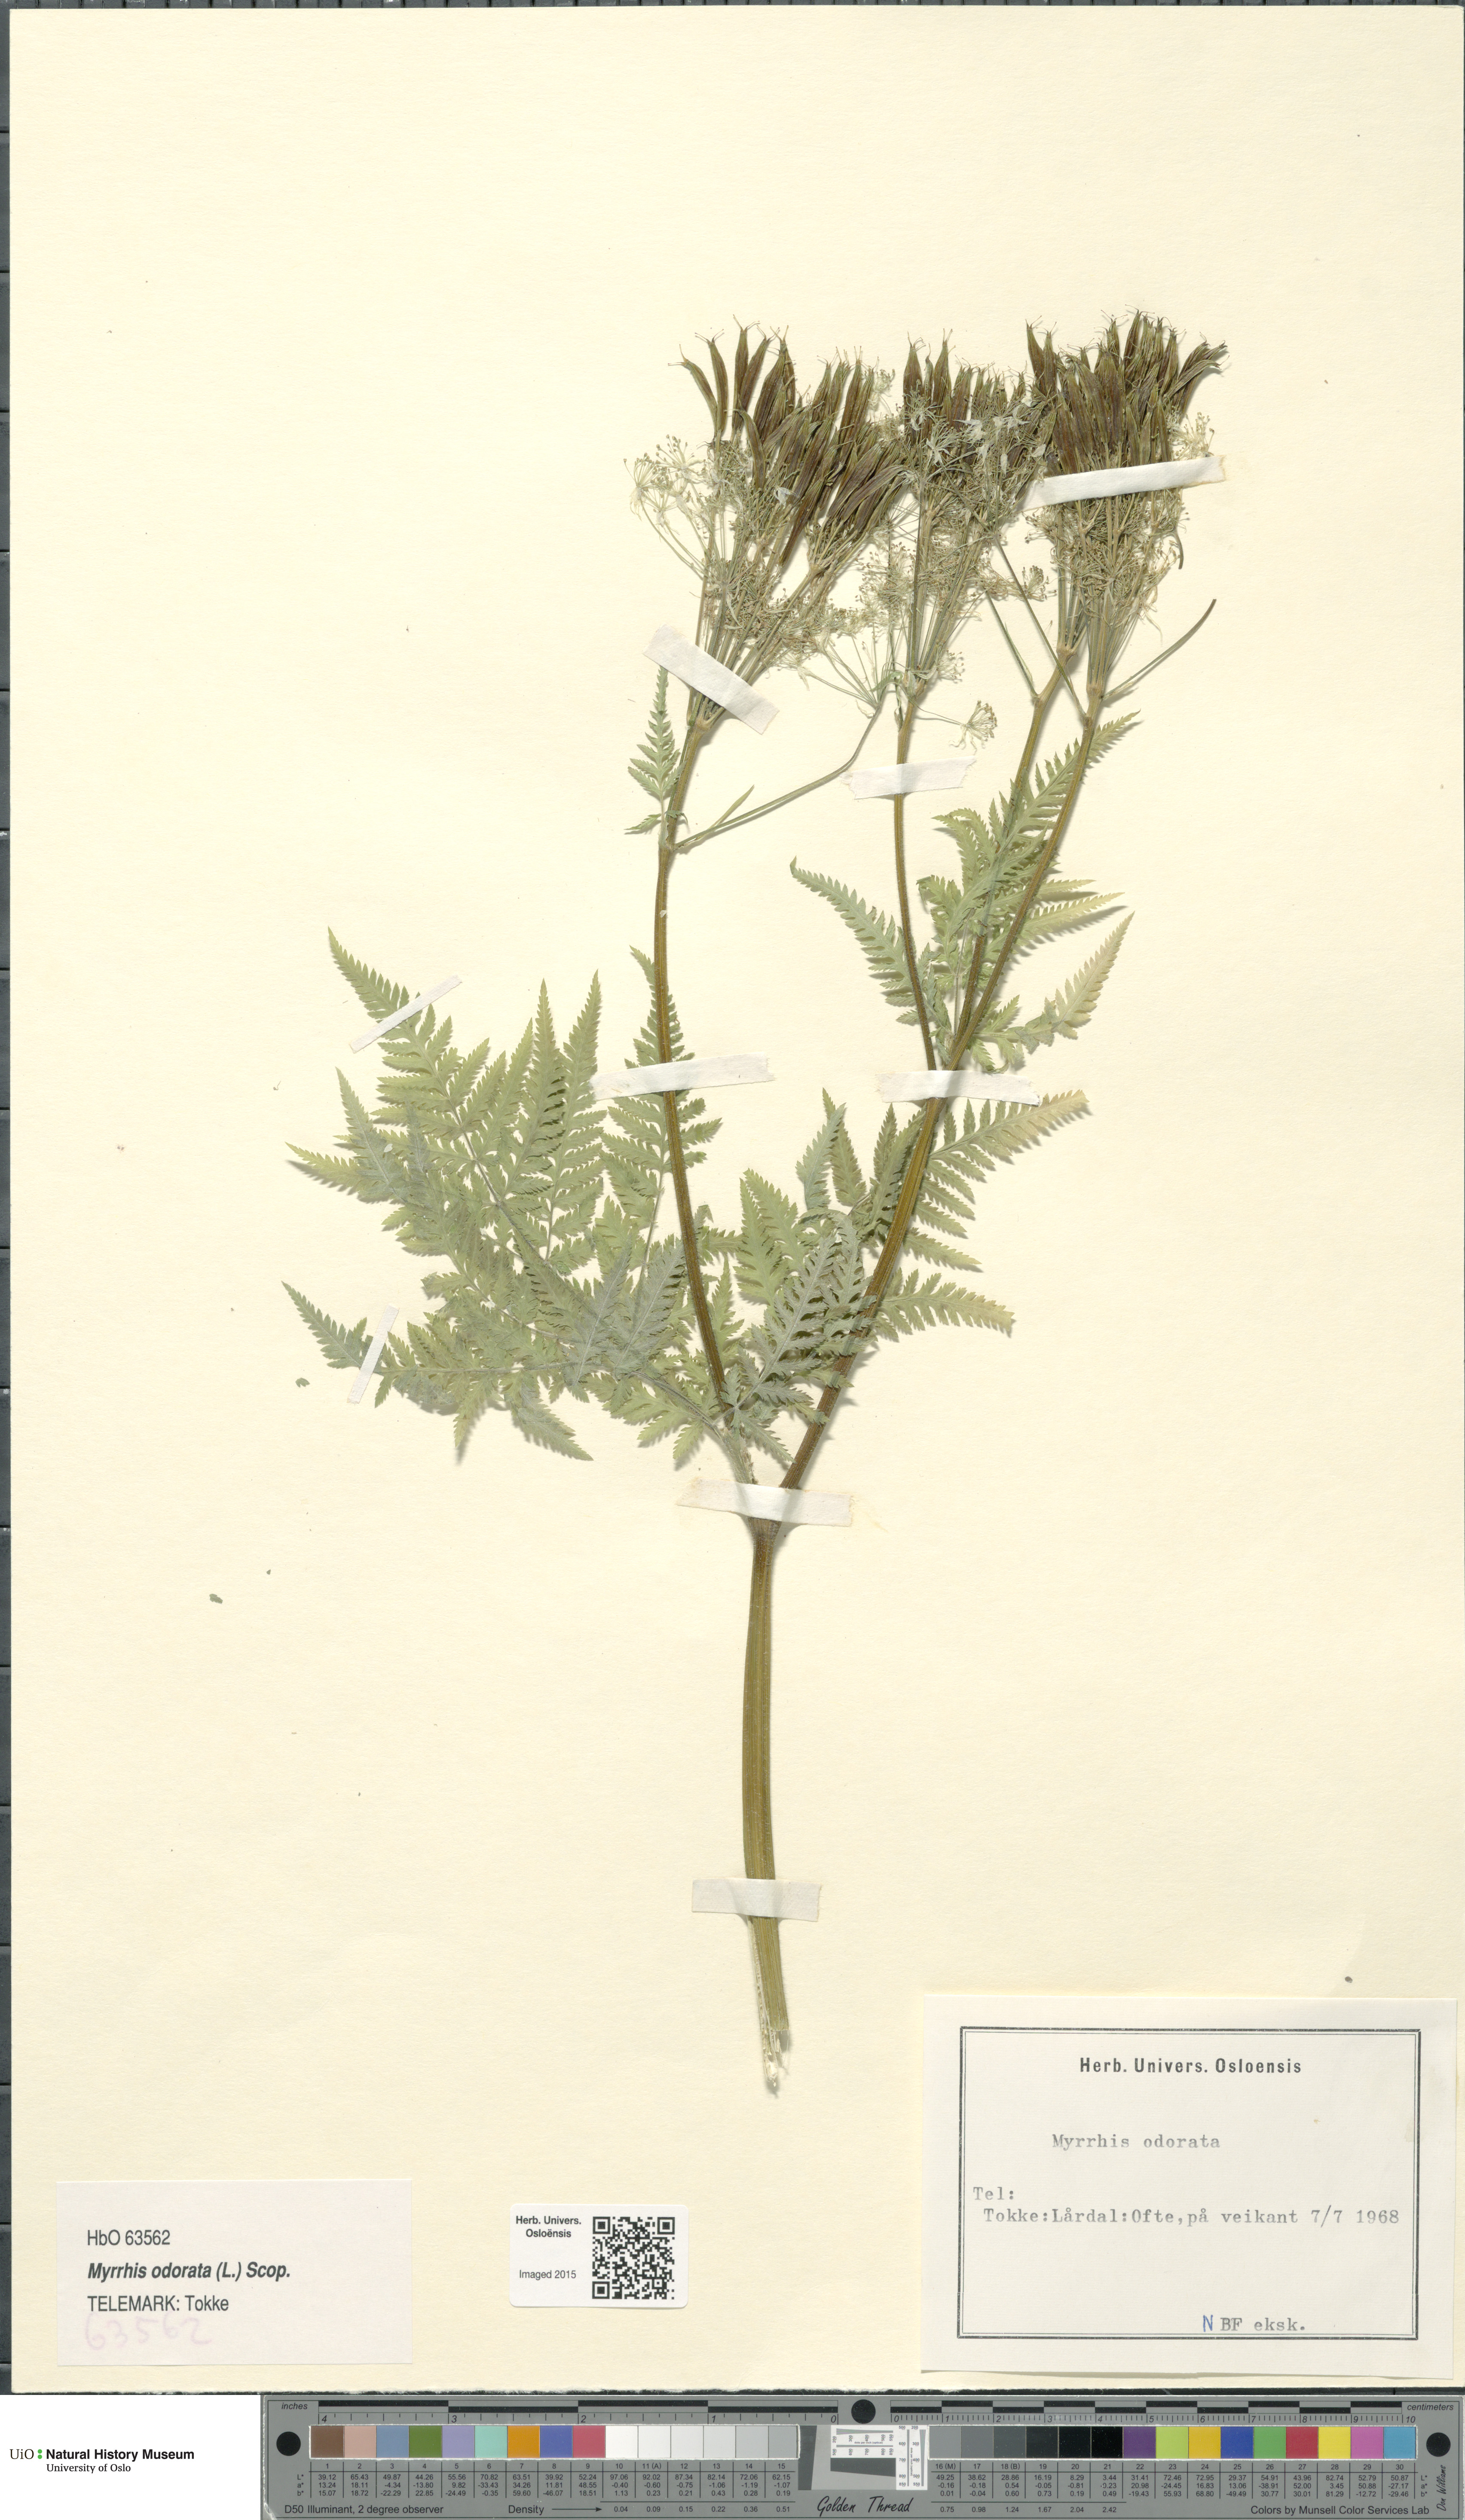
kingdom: Plantae
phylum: Tracheophyta
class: Magnoliopsida
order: Apiales
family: Apiaceae
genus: Myrrhis
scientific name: Myrrhis odorata
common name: Sweet cicely
